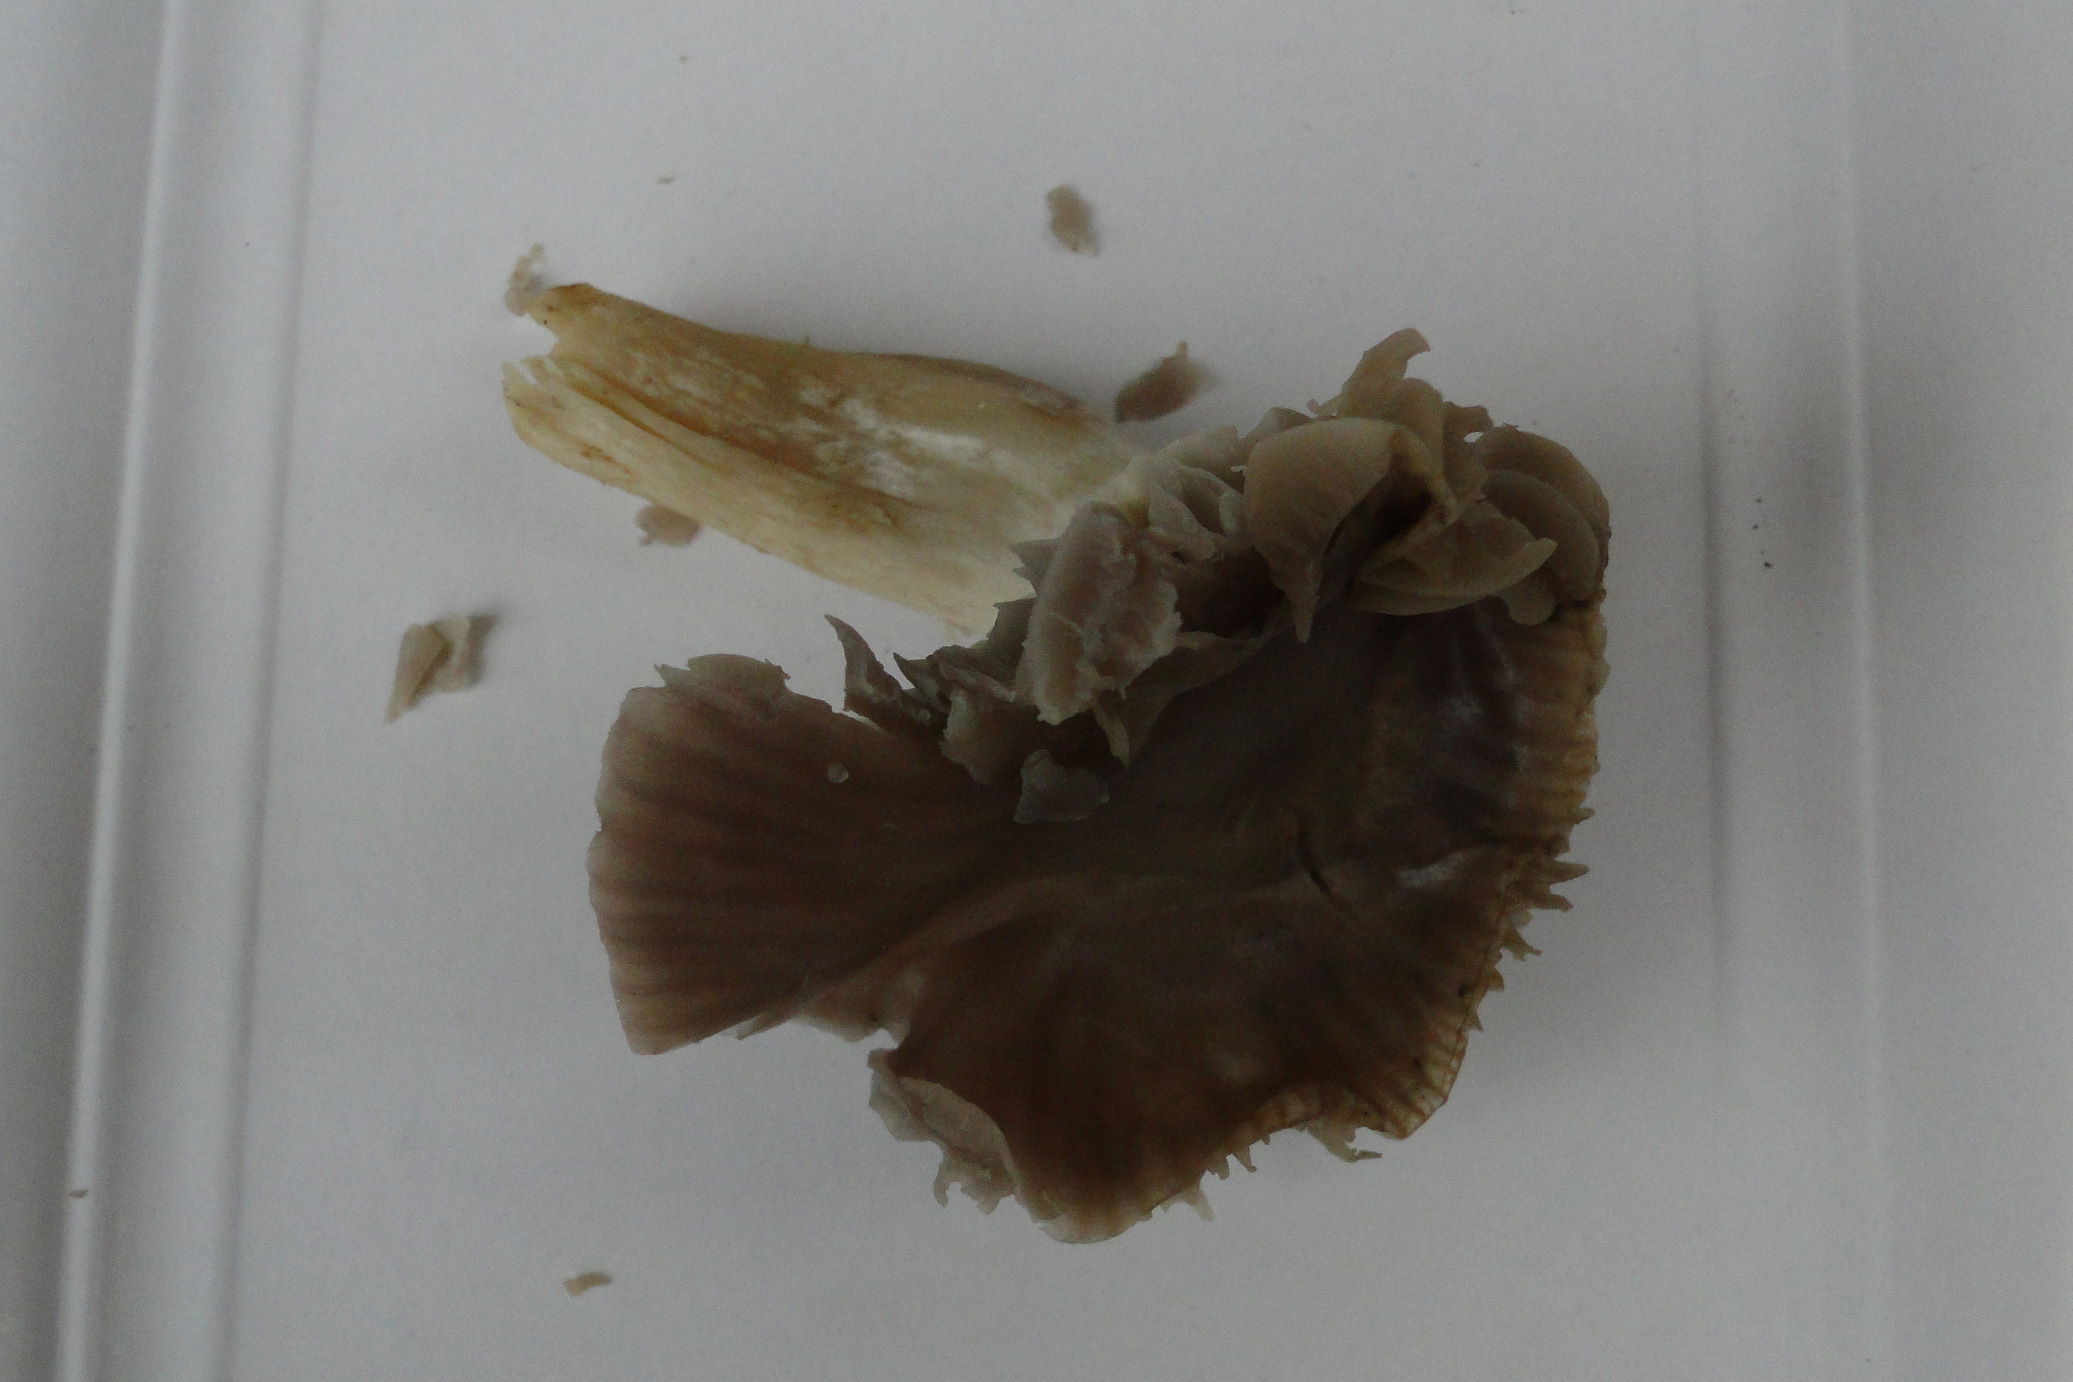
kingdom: Fungi
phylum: Basidiomycota
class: Agaricomycetes
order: Agaricales
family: Hygrophoraceae
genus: Cuphophyllus
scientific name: Cuphophyllus flavipes
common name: gulfodet vokshat
